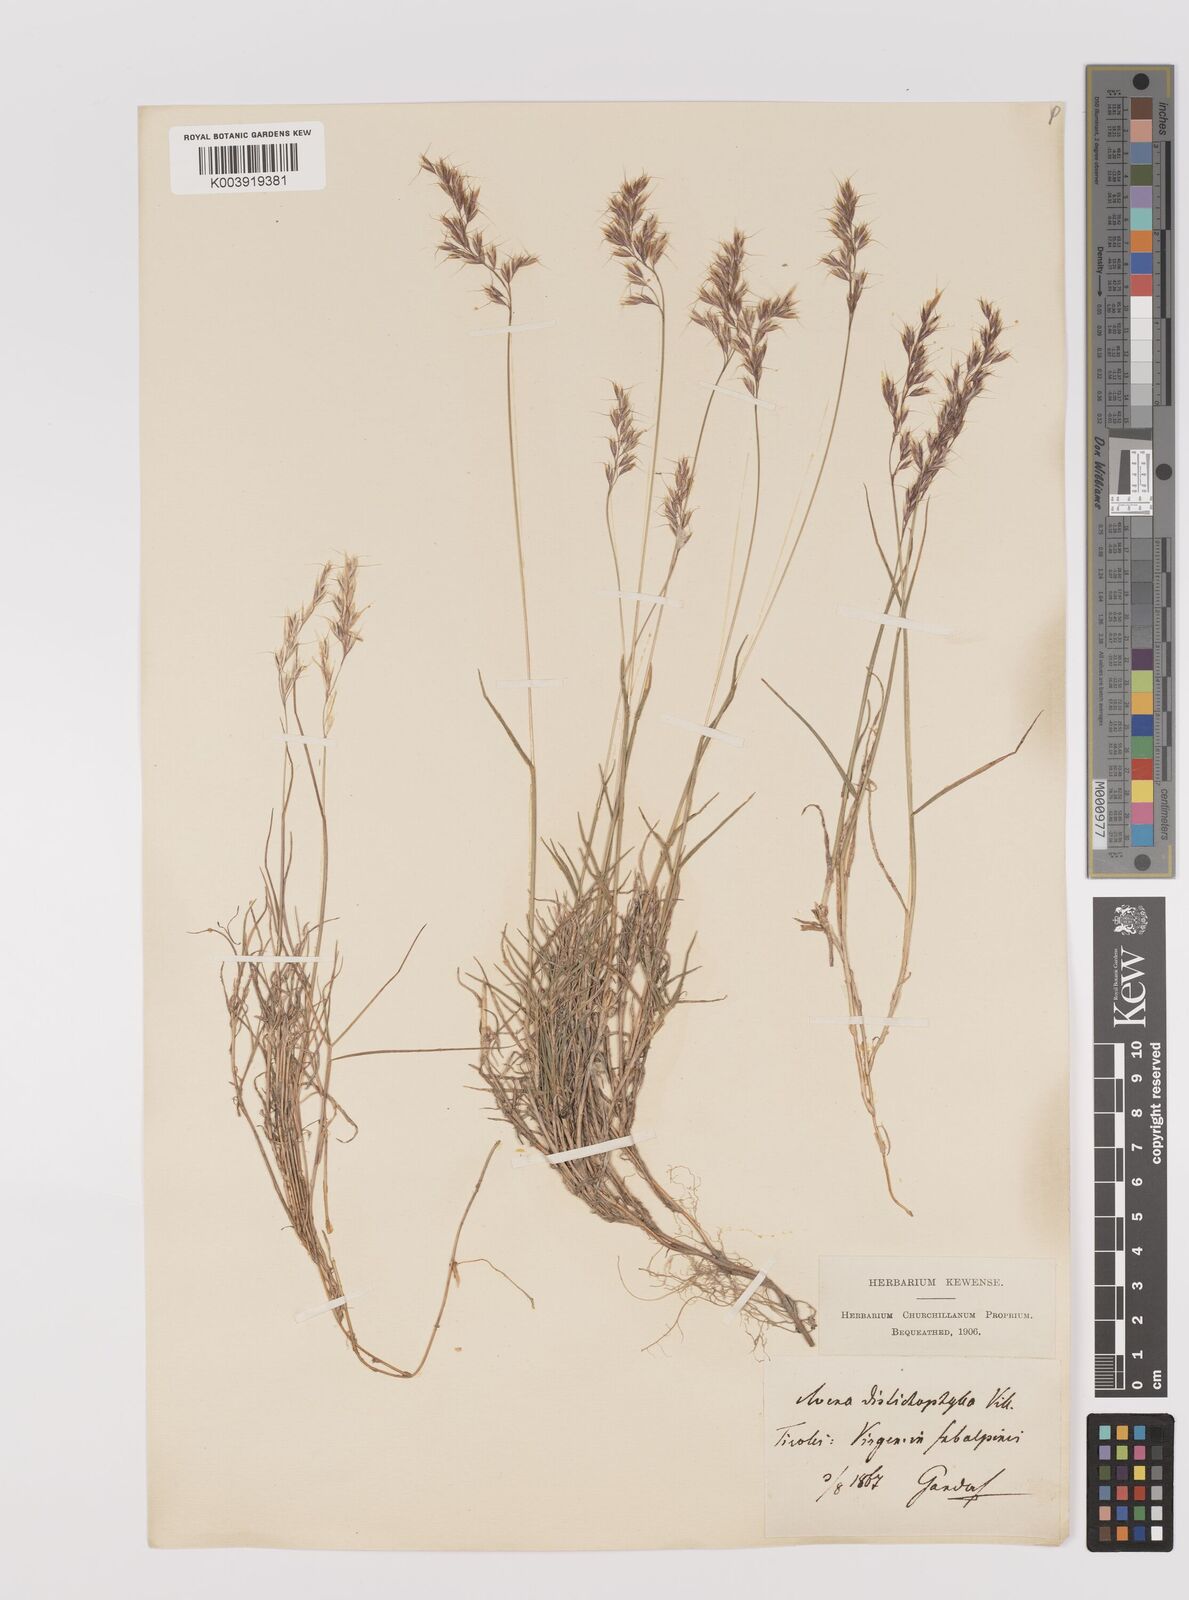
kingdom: Plantae
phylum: Tracheophyta
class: Liliopsida
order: Poales
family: Poaceae
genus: Acrospelion
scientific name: Acrospelion distichophyllum
